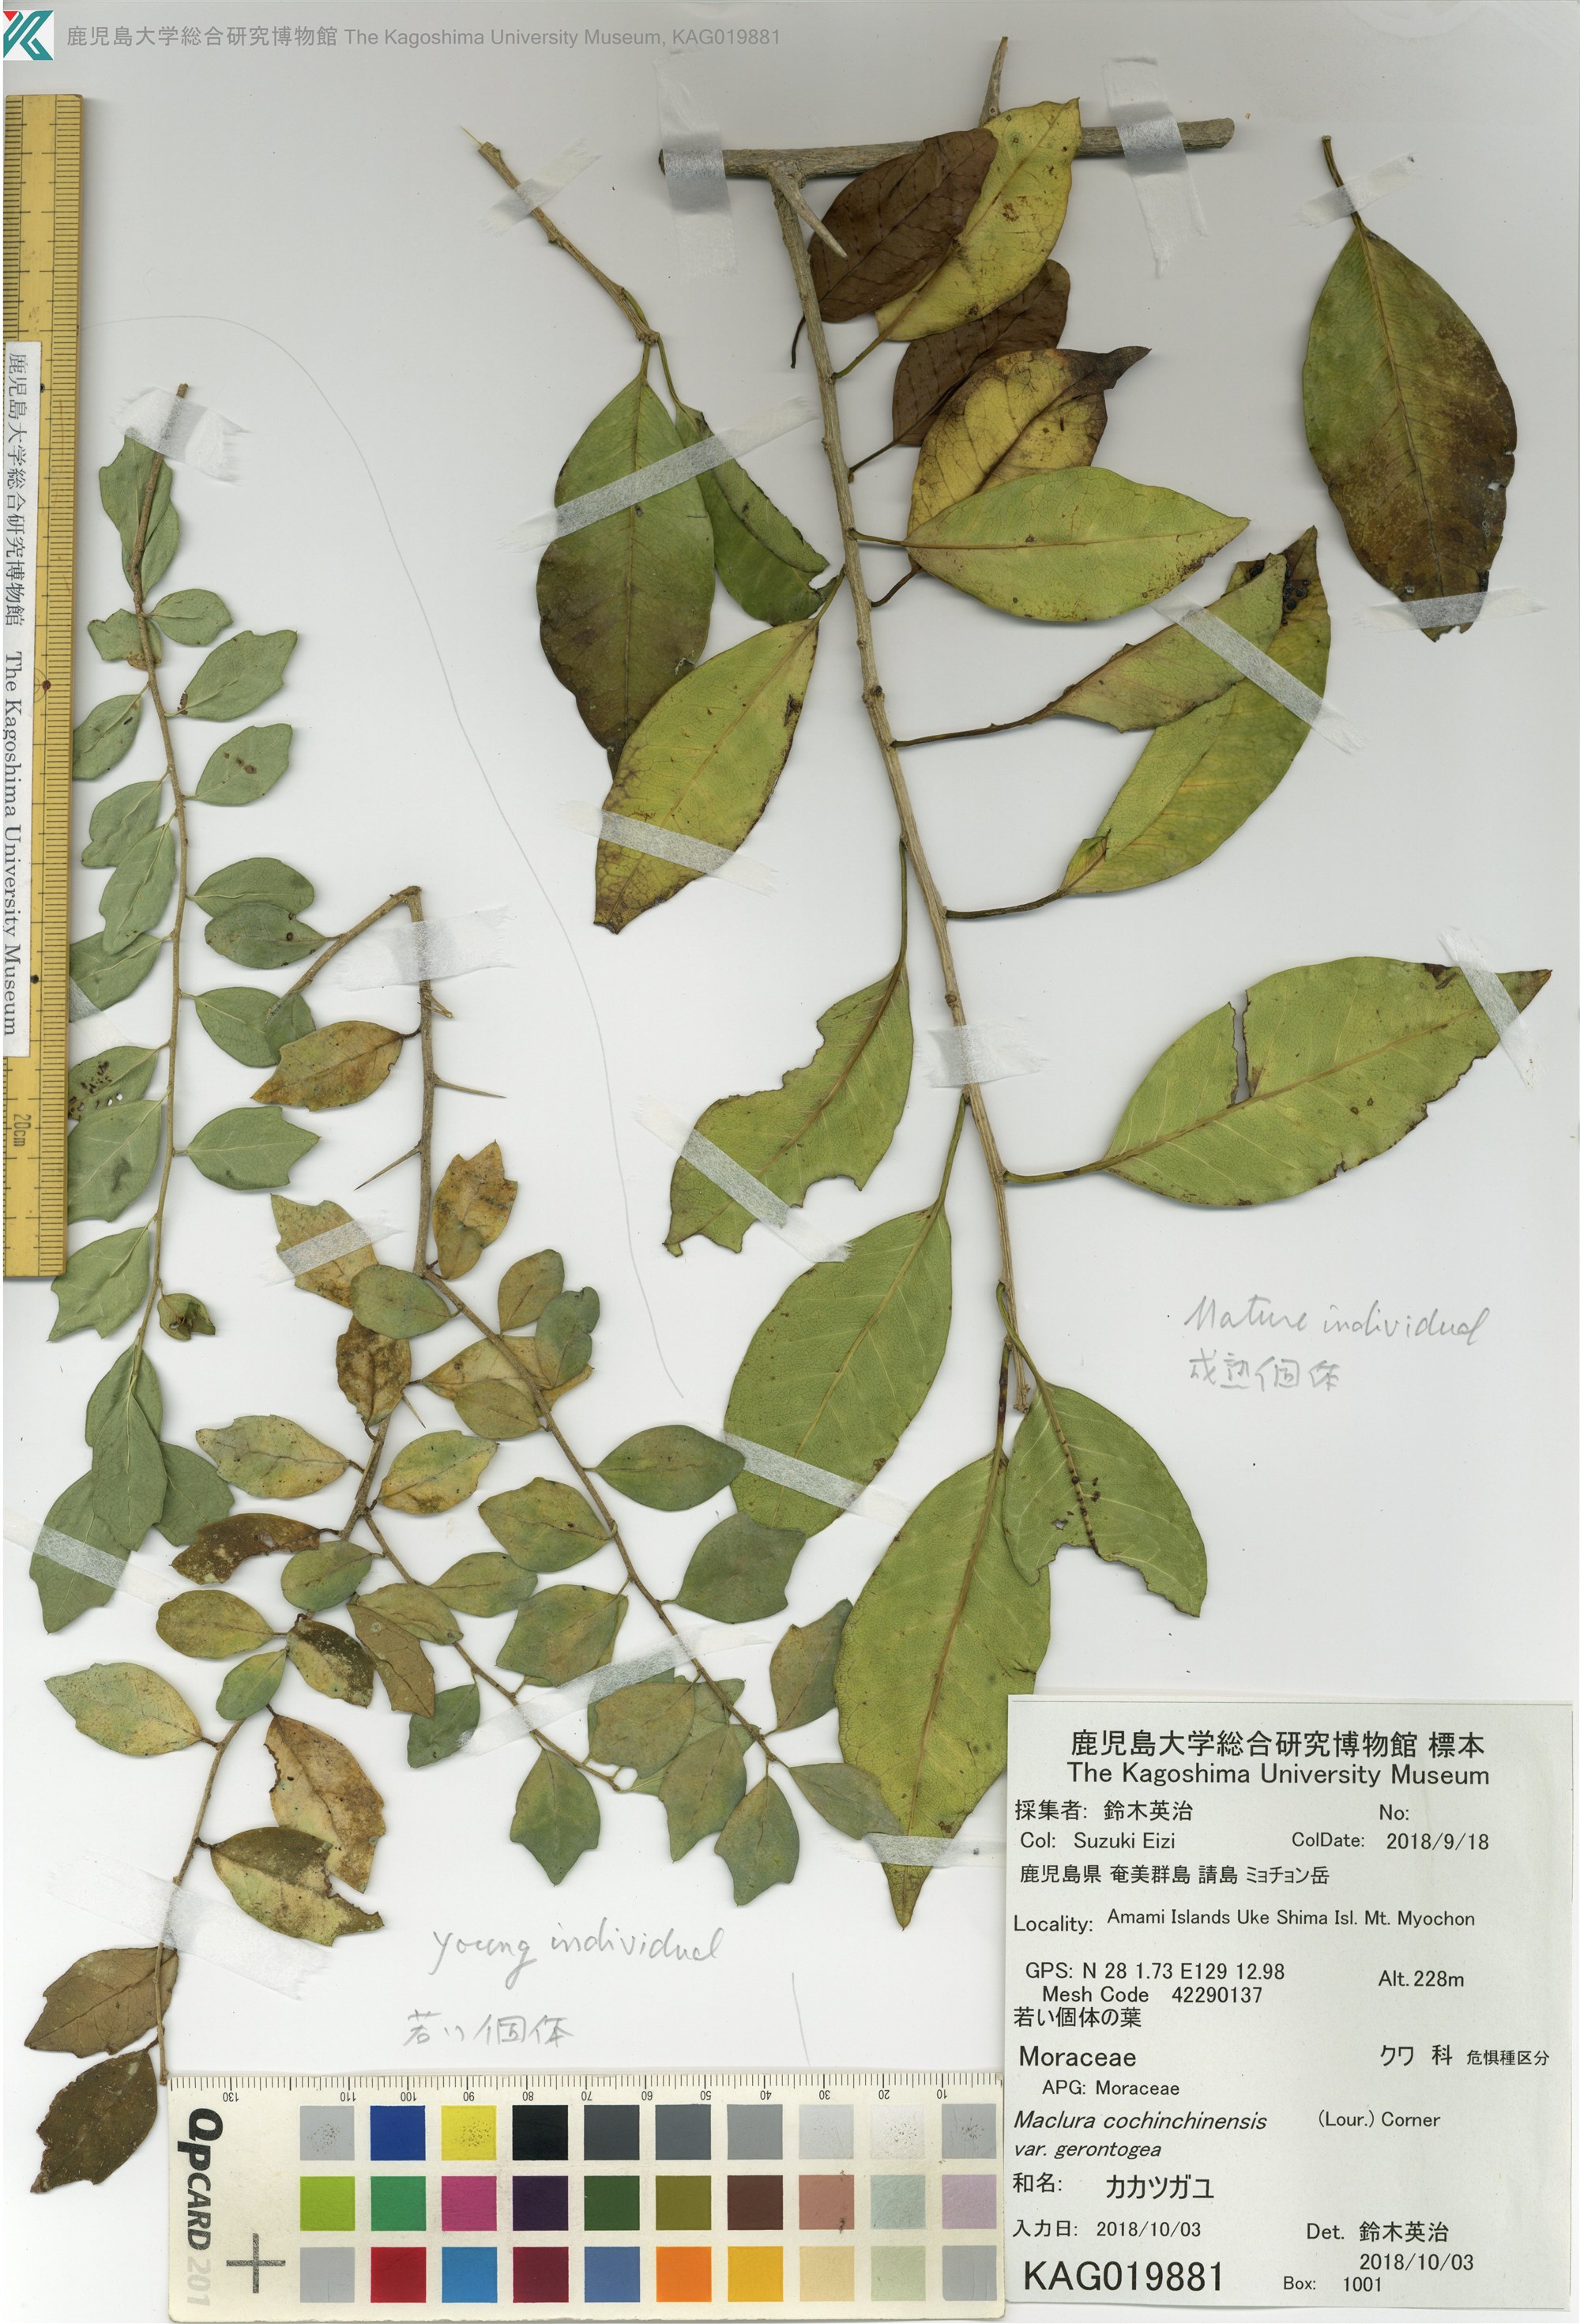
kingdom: Plantae
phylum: Tracheophyta
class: Magnoliopsida
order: Rosales
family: Moraceae
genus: Maclura
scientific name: Maclura cochinchinensis
